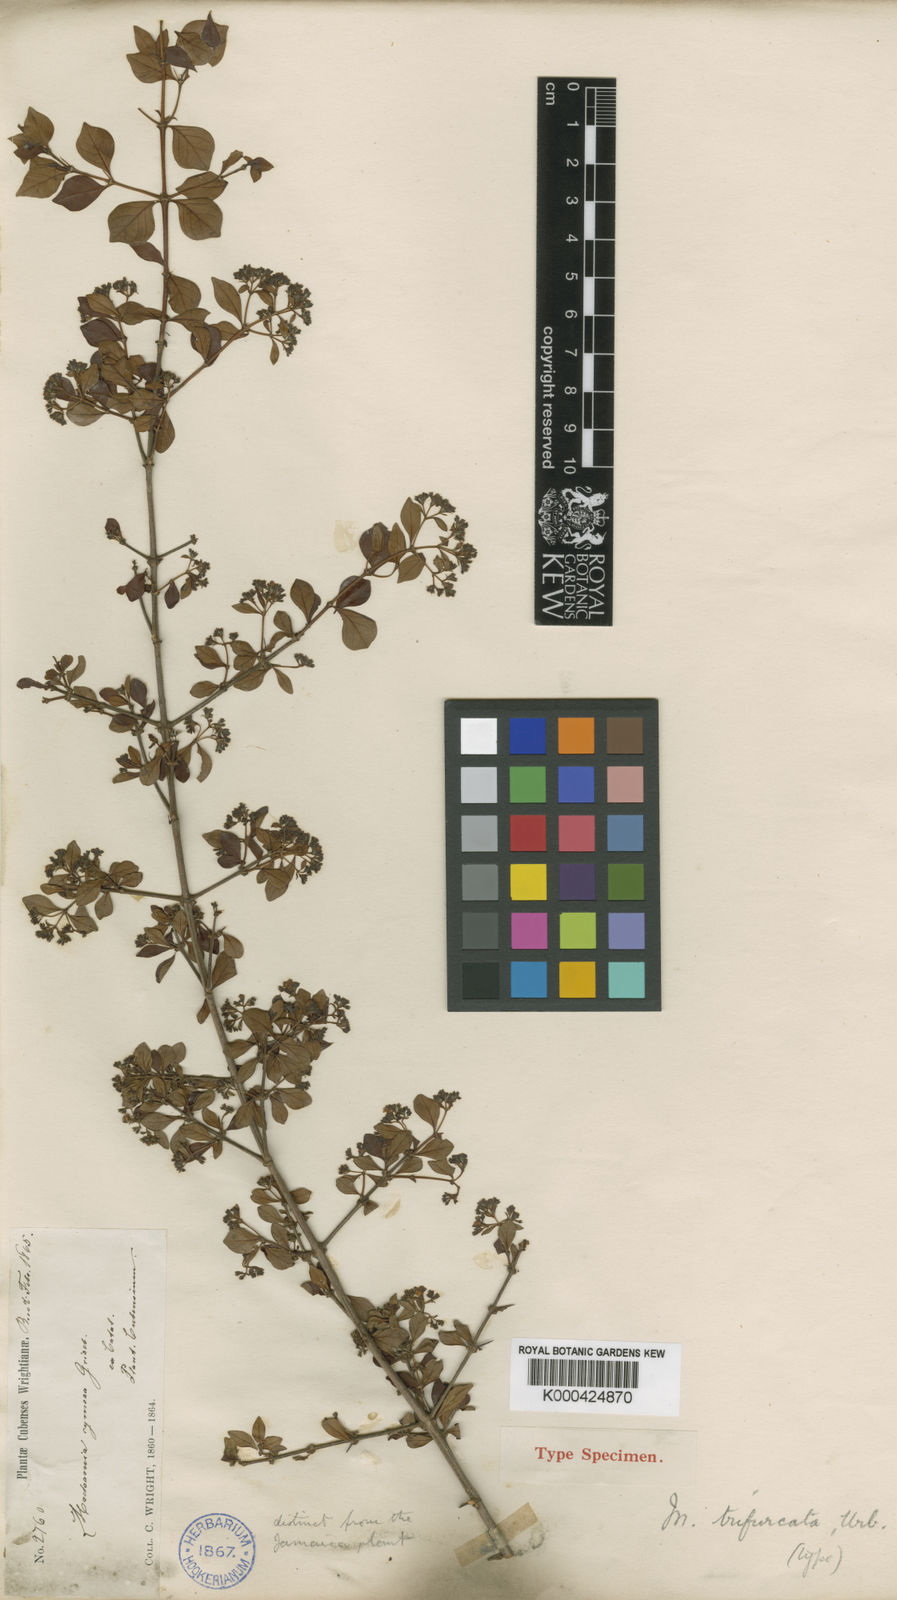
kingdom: Plantae
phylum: Tracheophyta
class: Magnoliopsida
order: Gentianales
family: Rubiaceae
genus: Machaonia
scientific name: Machaonia pauciflora
